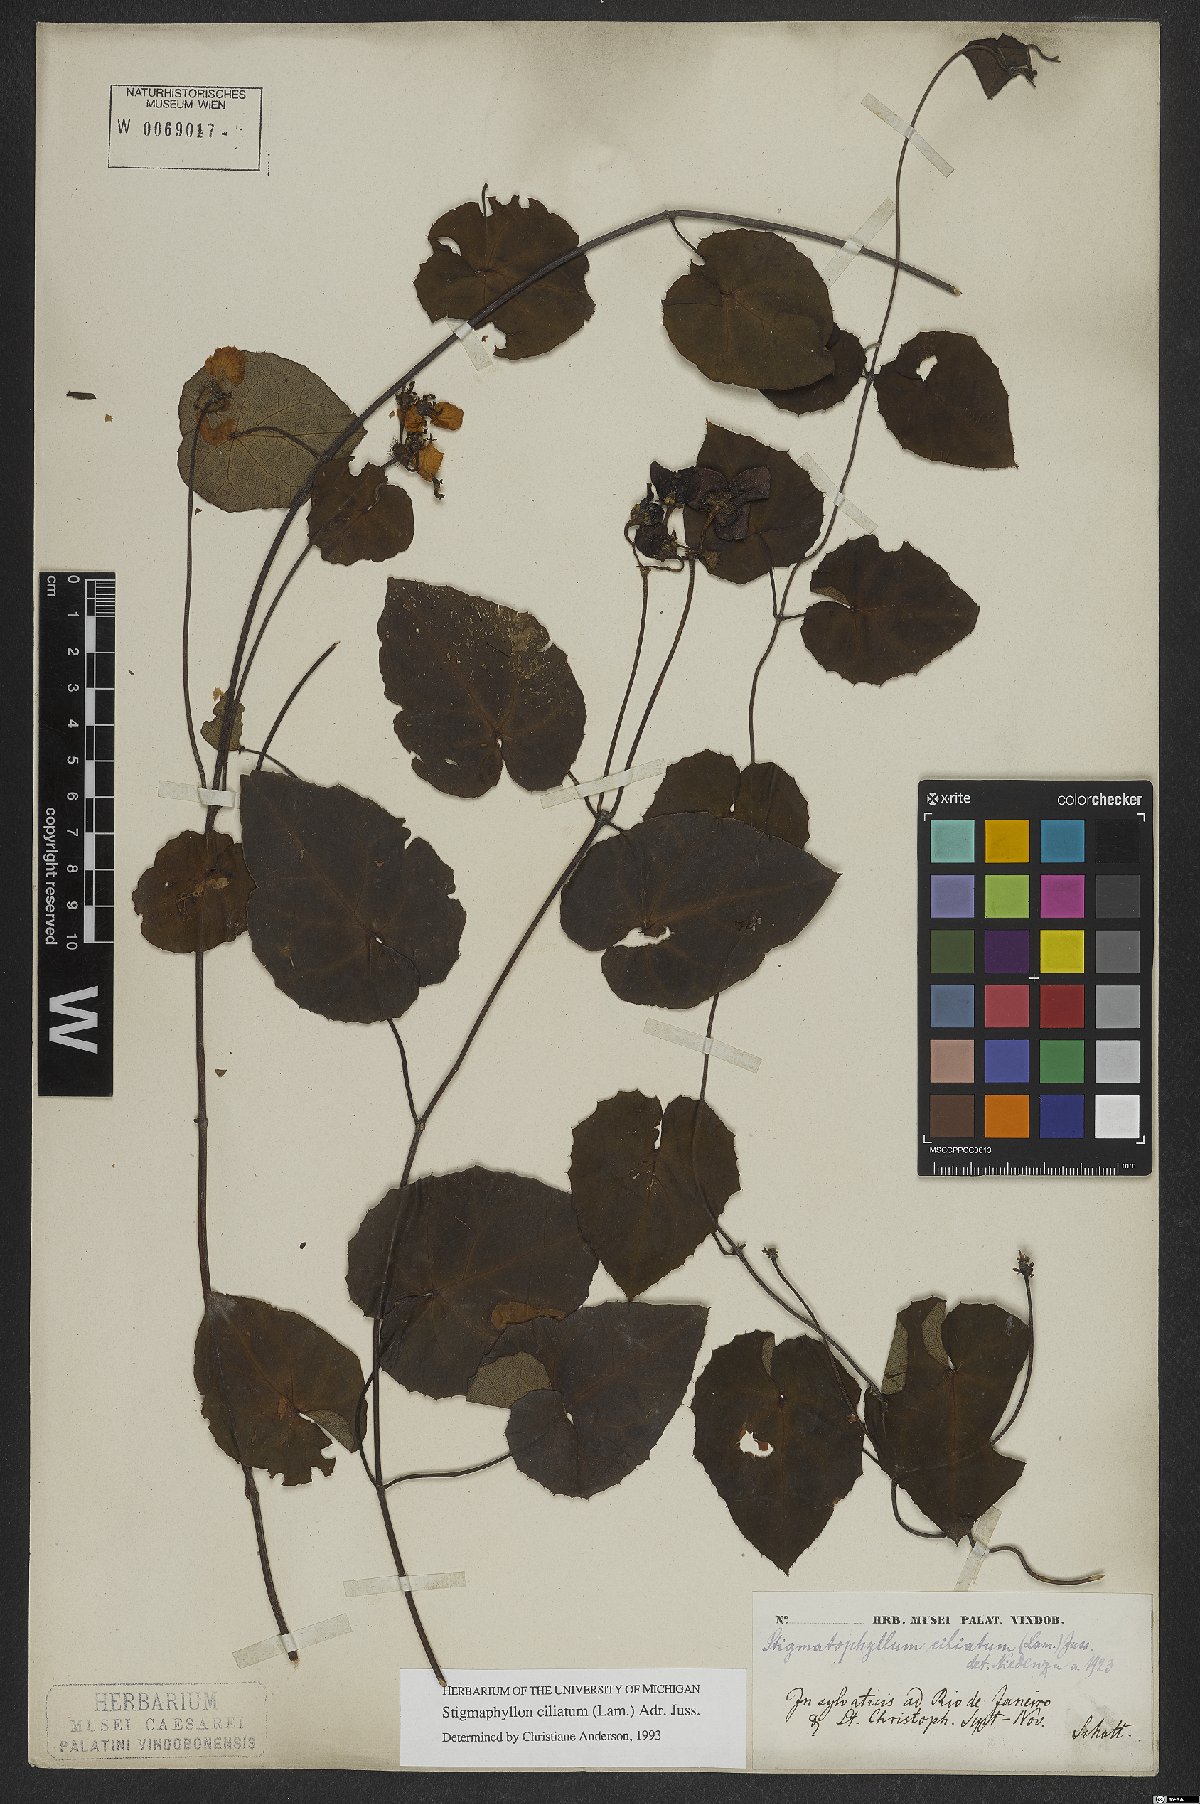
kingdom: Plantae
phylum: Tracheophyta
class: Magnoliopsida
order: Malpighiales
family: Malpighiaceae
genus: Stigmaphyllon
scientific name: Stigmaphyllon ciliatum
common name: Amazonvine
